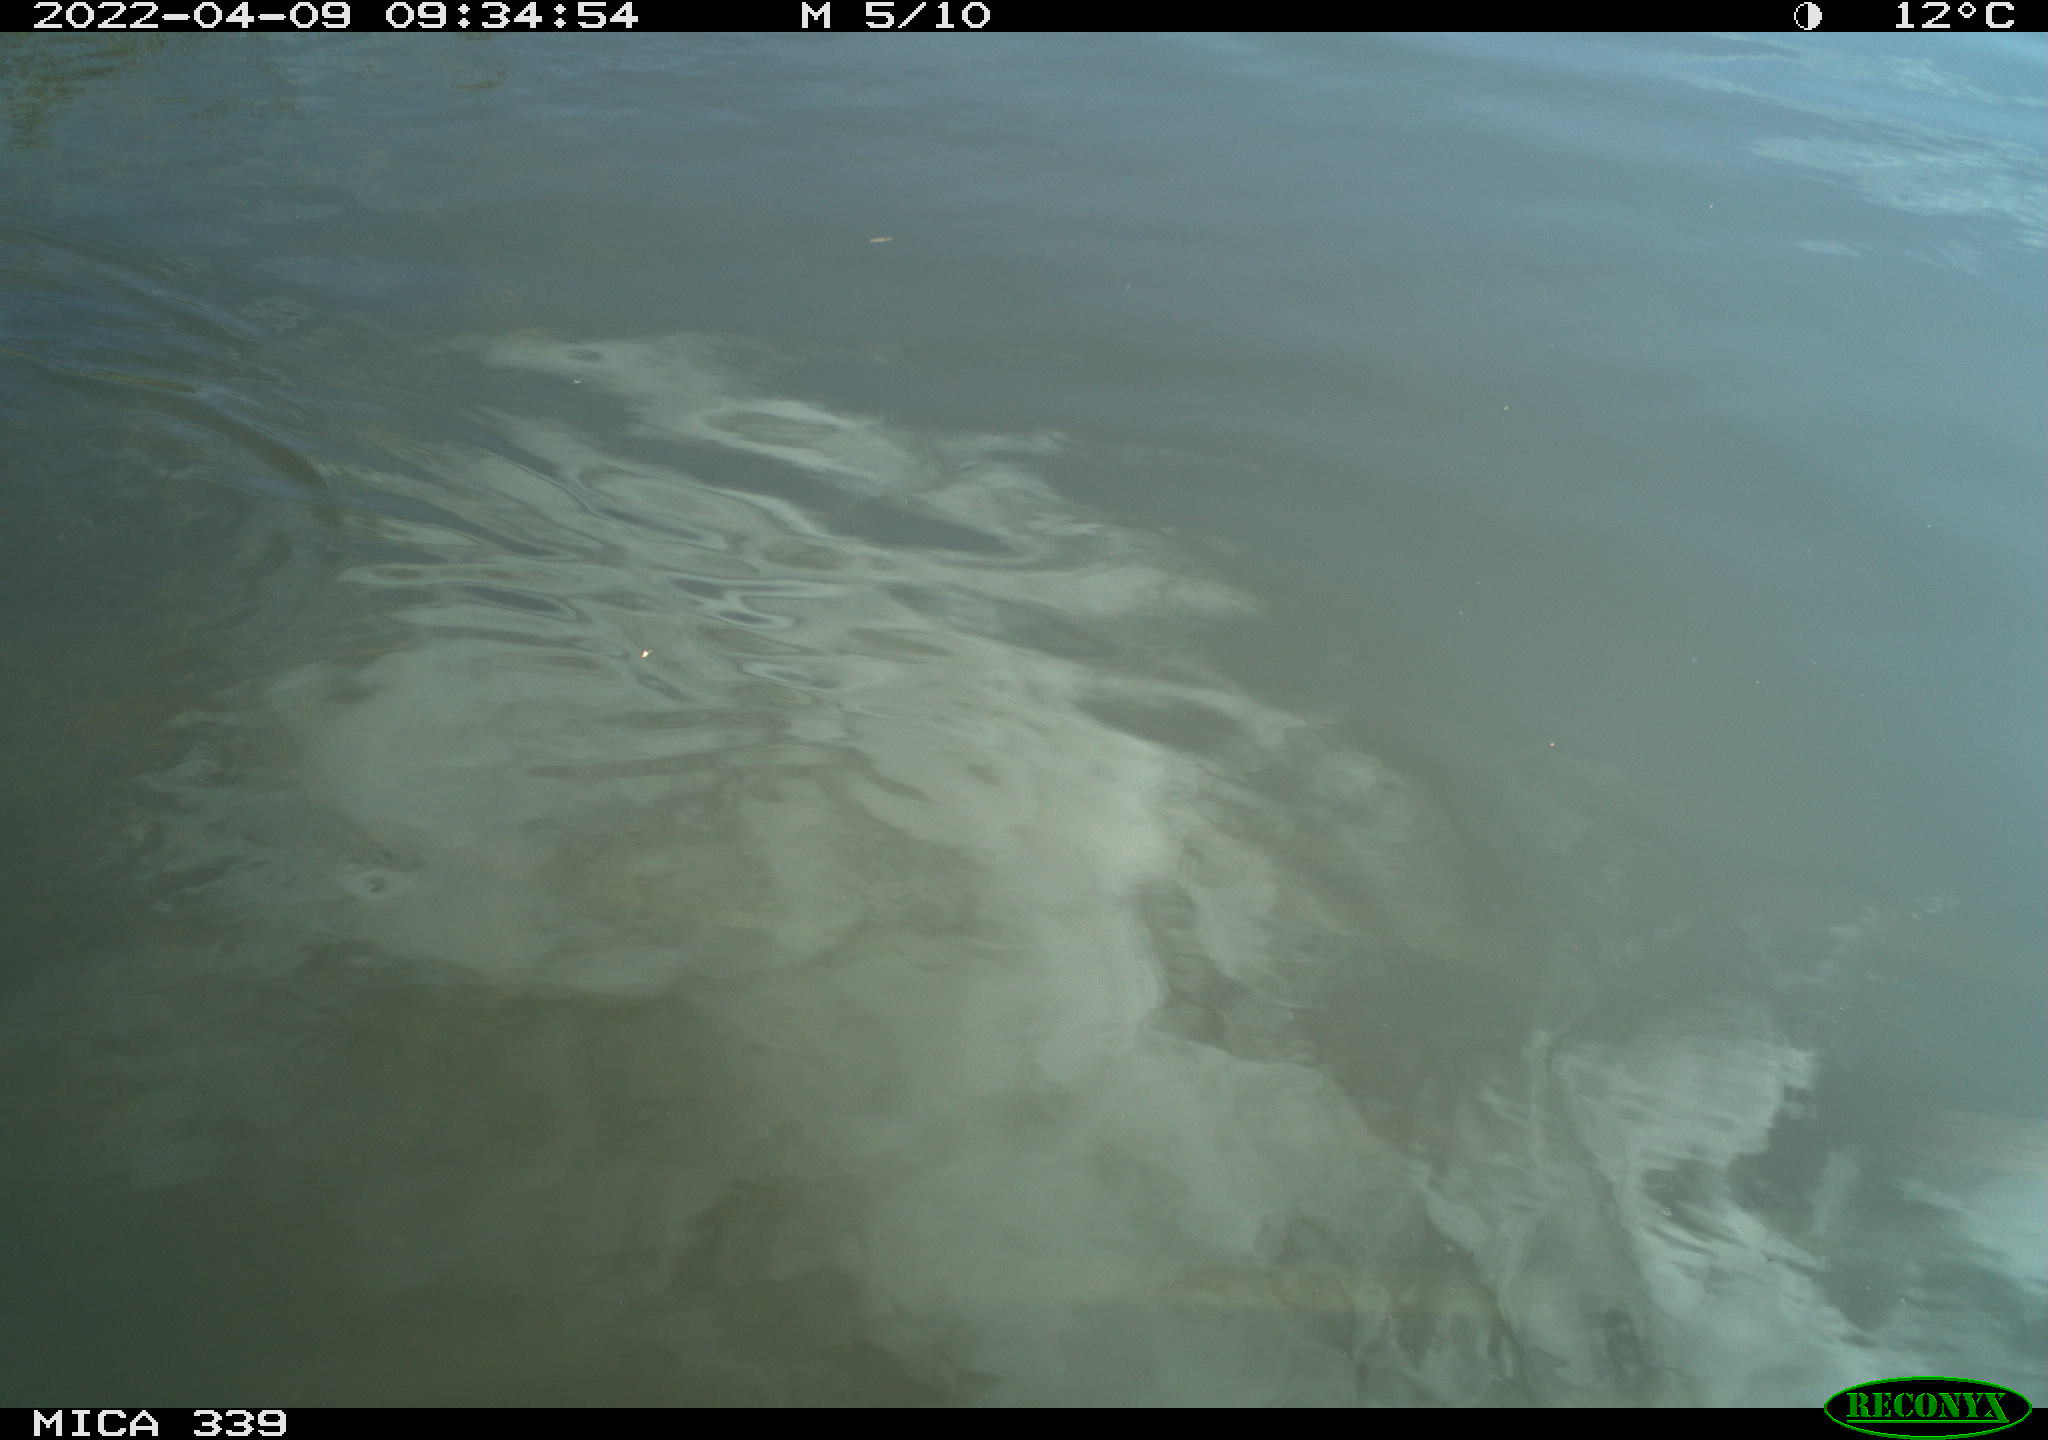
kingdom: Animalia
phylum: Chordata
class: Aves
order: Anseriformes
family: Anatidae
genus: Anas
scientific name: Anas platyrhynchos
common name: Mallard
